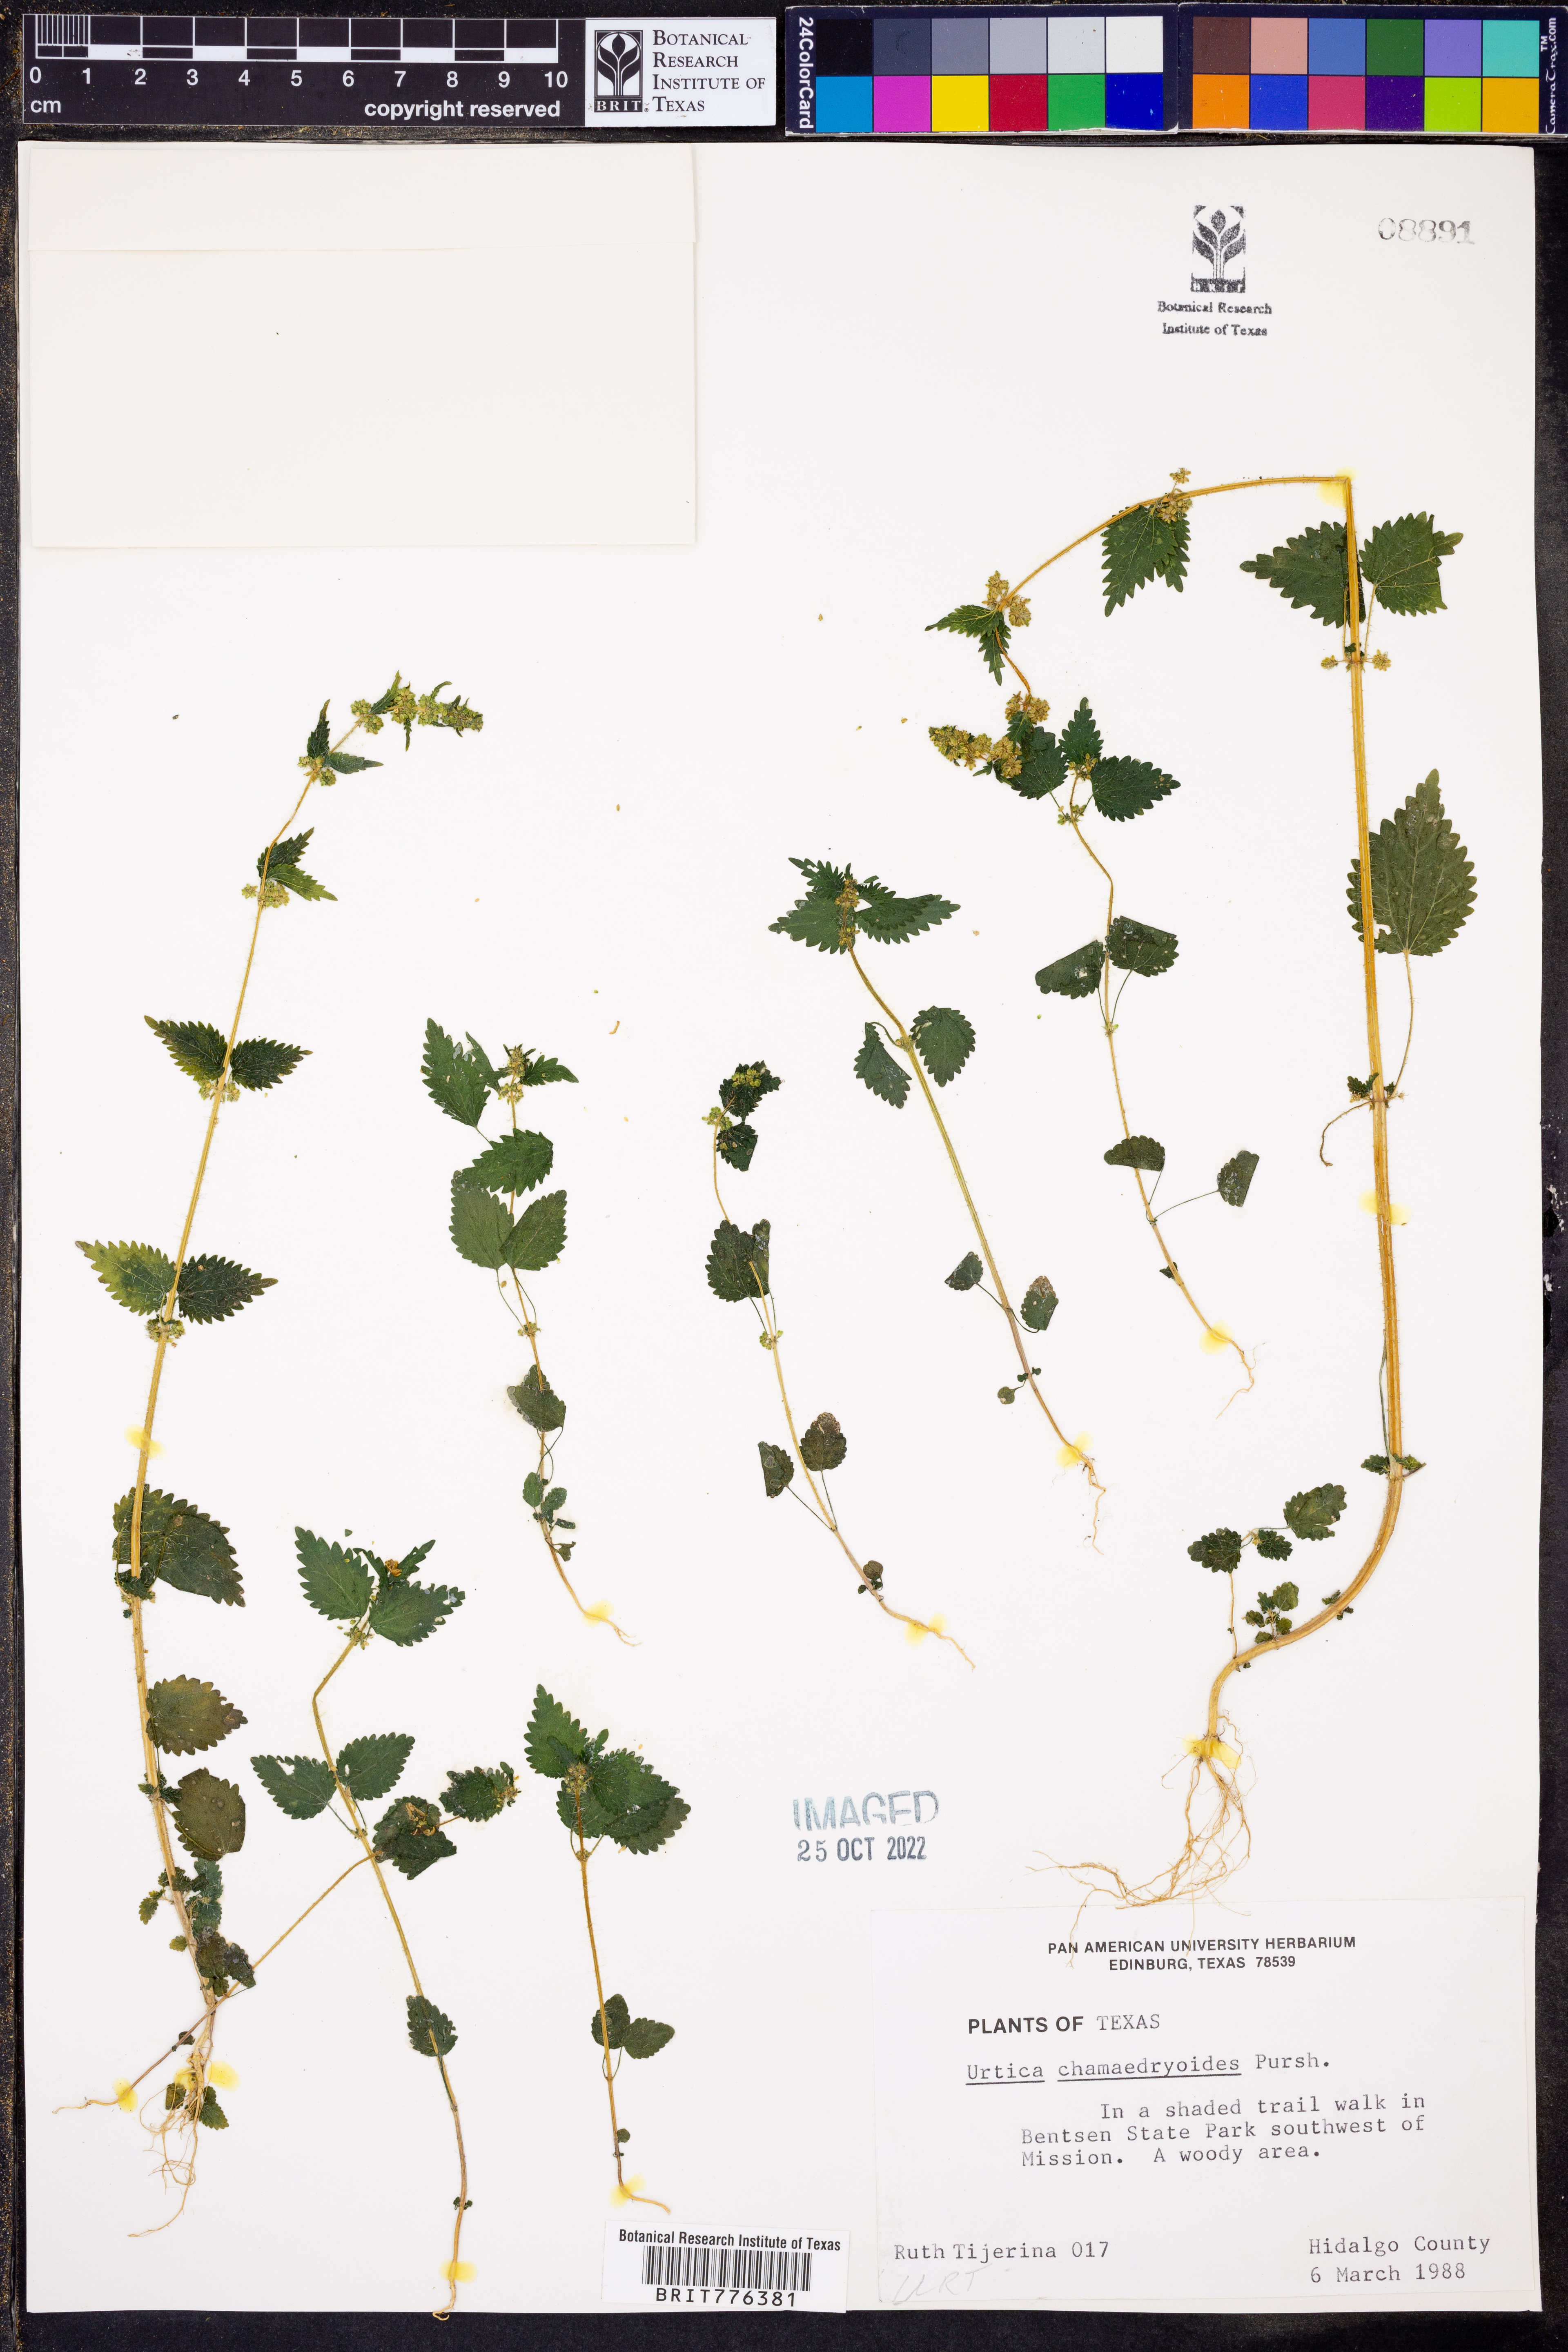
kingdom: Plantae
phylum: Tracheophyta
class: Magnoliopsida
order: Rosales
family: Urticaceae
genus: Urtica
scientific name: Urtica chamaedryoides
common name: Heart-leaf nettle
